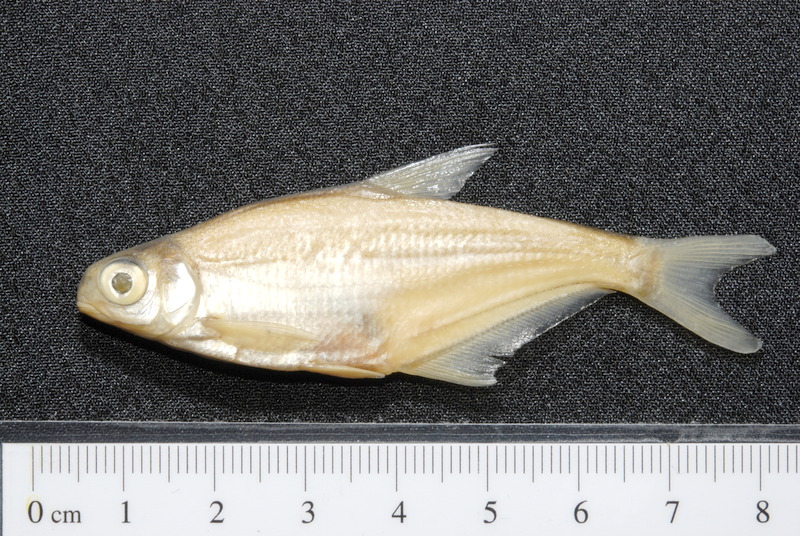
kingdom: Animalia
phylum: Chordata
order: Cypriniformes
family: Cyprinidae
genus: Ballerus
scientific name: Ballerus sapa
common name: White-eye bream
